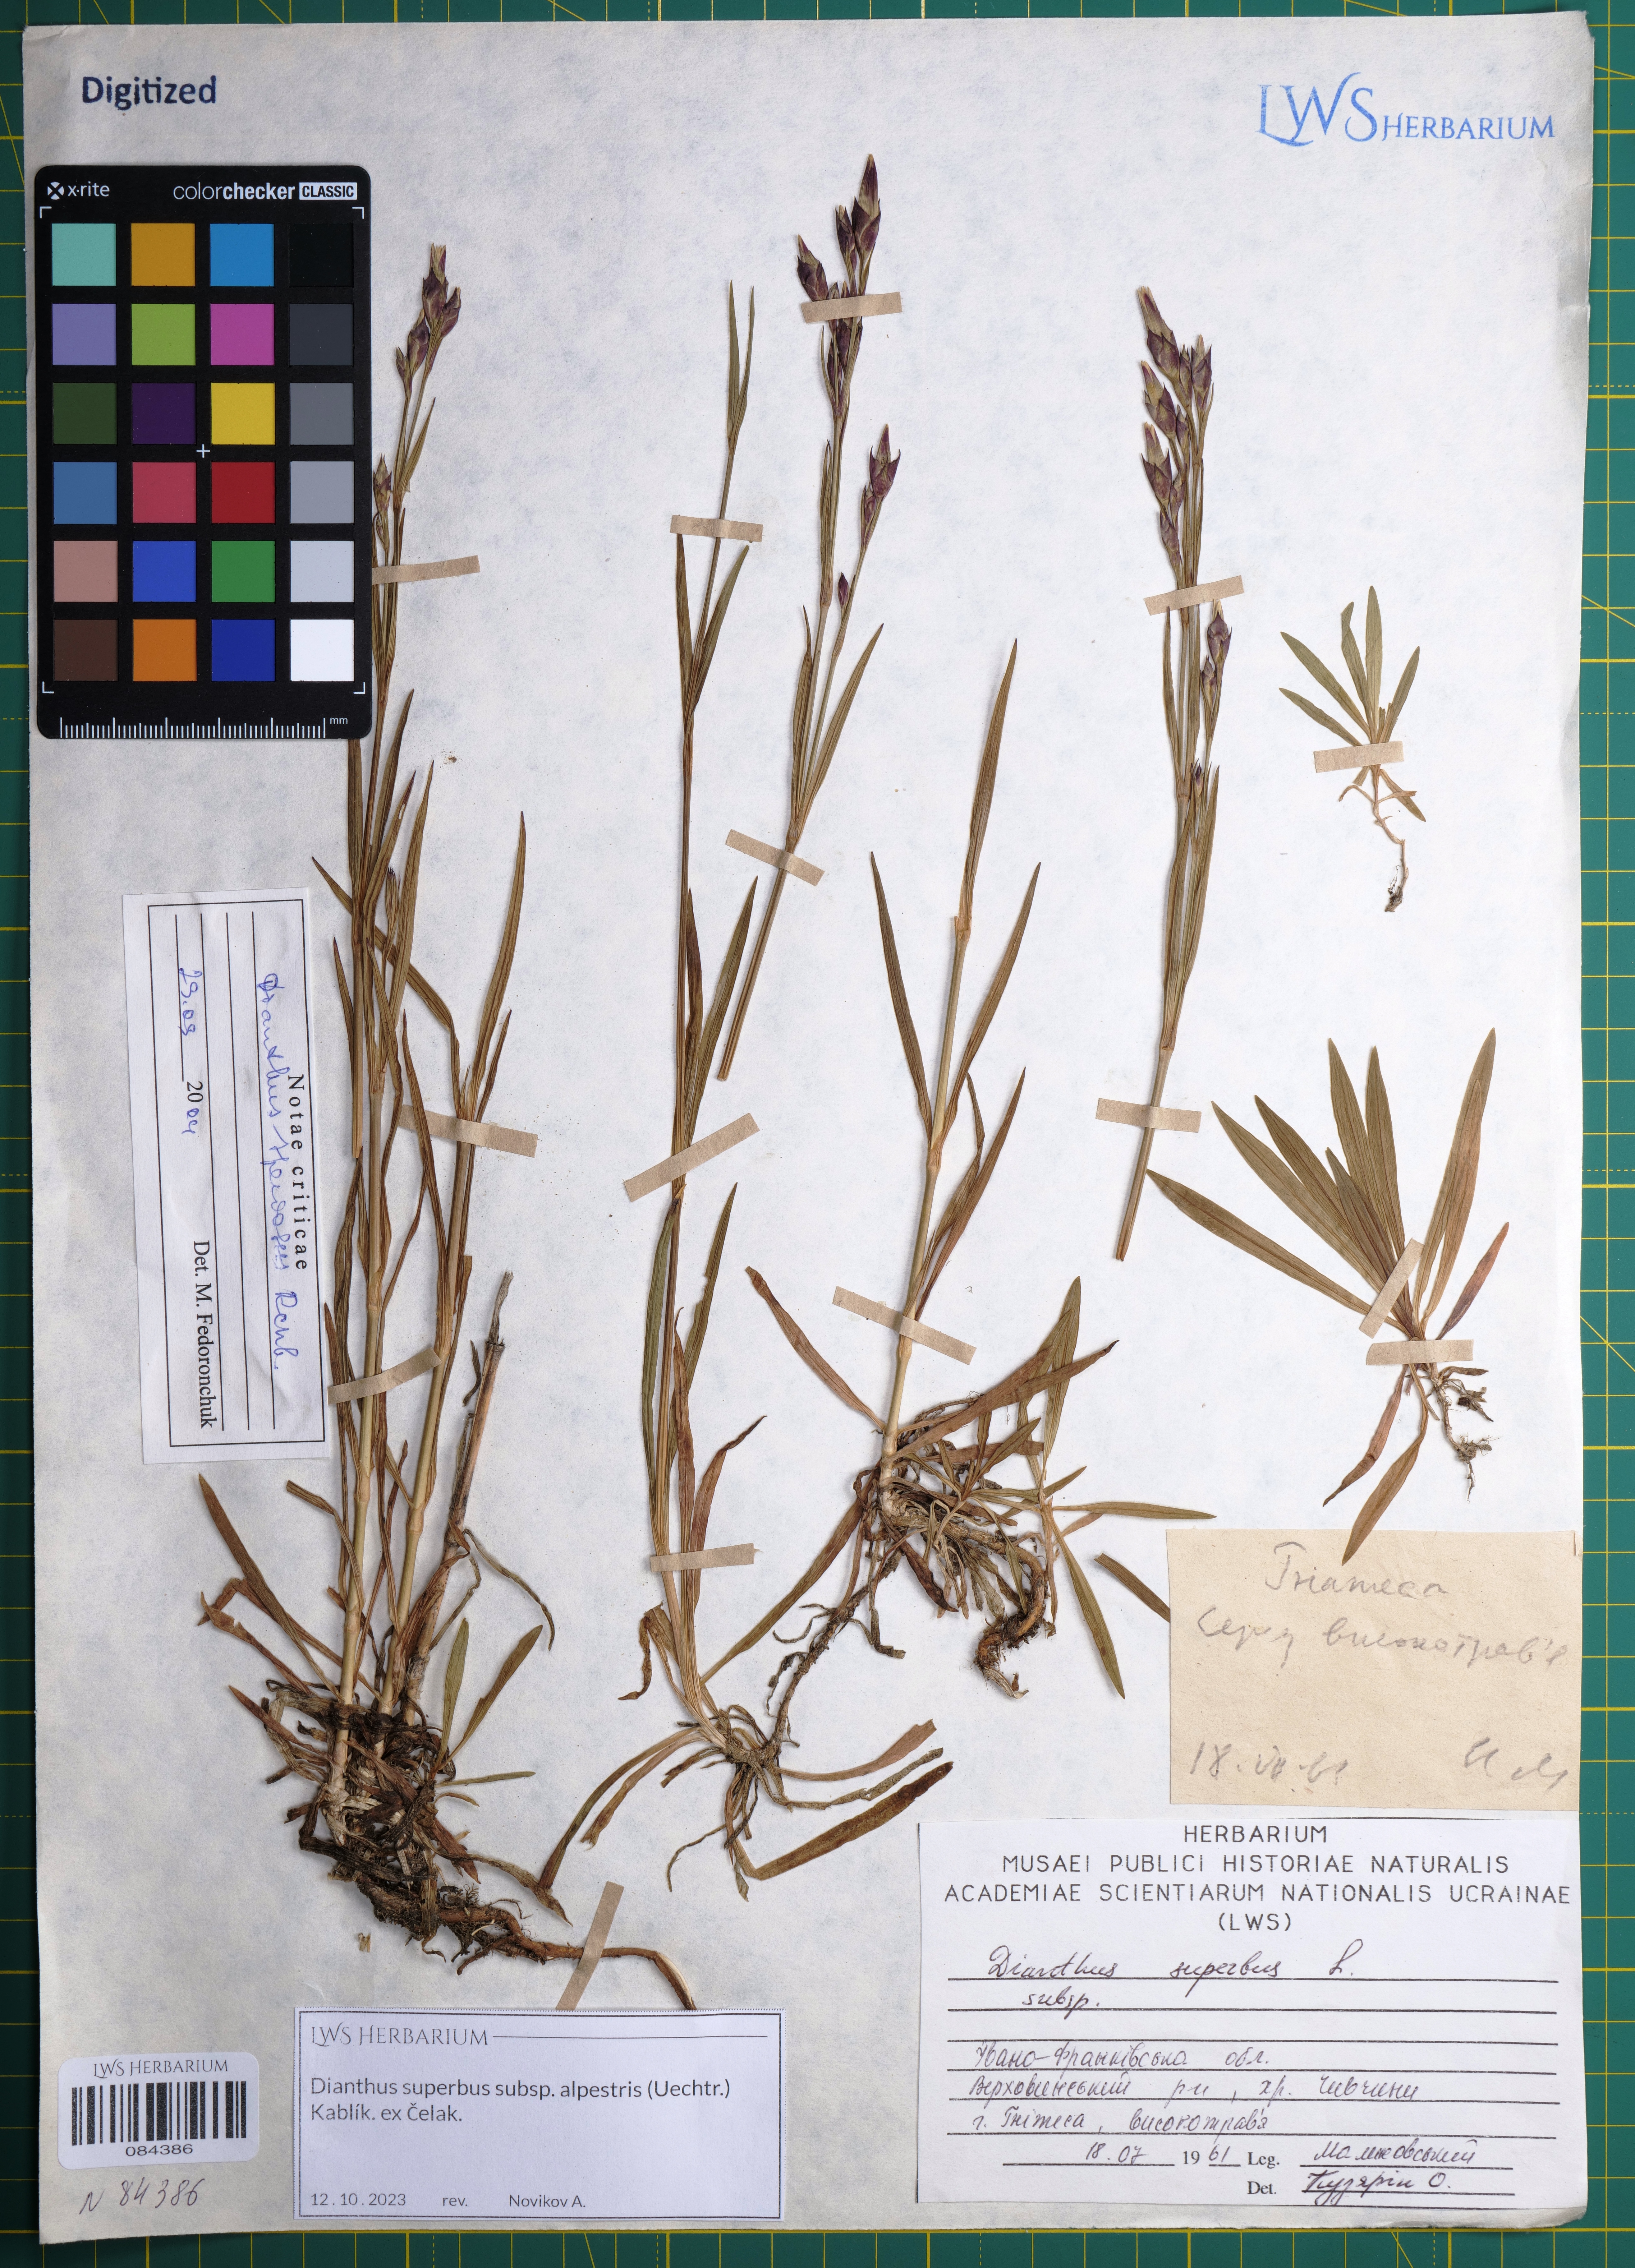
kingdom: Plantae
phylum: Tracheophyta
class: Magnoliopsida
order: Caryophyllales
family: Caryophyllaceae
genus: Dianthus
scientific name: Dianthus superbus
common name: Fringed pink
